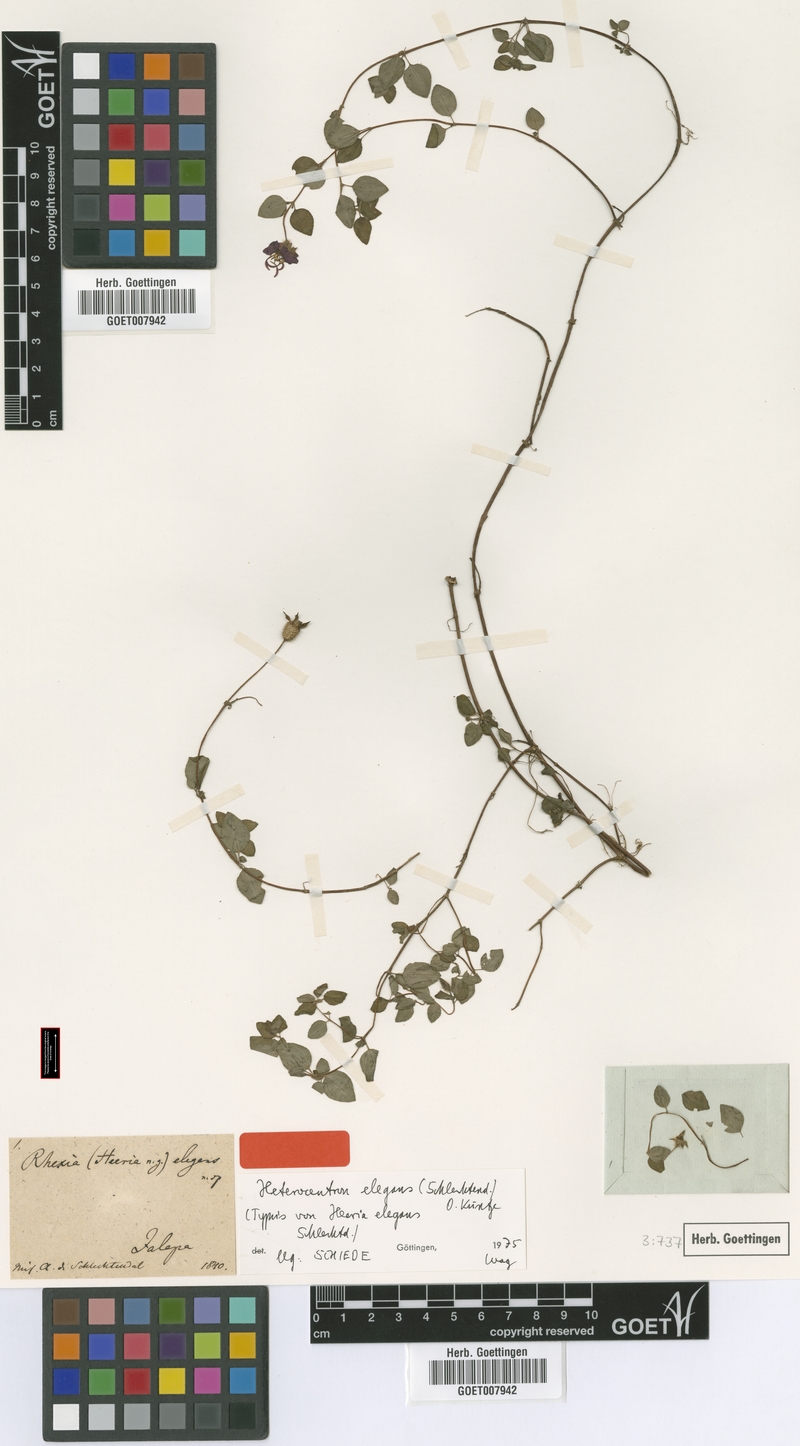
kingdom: Plantae
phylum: Tracheophyta
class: Magnoliopsida
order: Myrtales
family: Melastomataceae
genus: Heterocentron
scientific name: Heterocentron elegans
